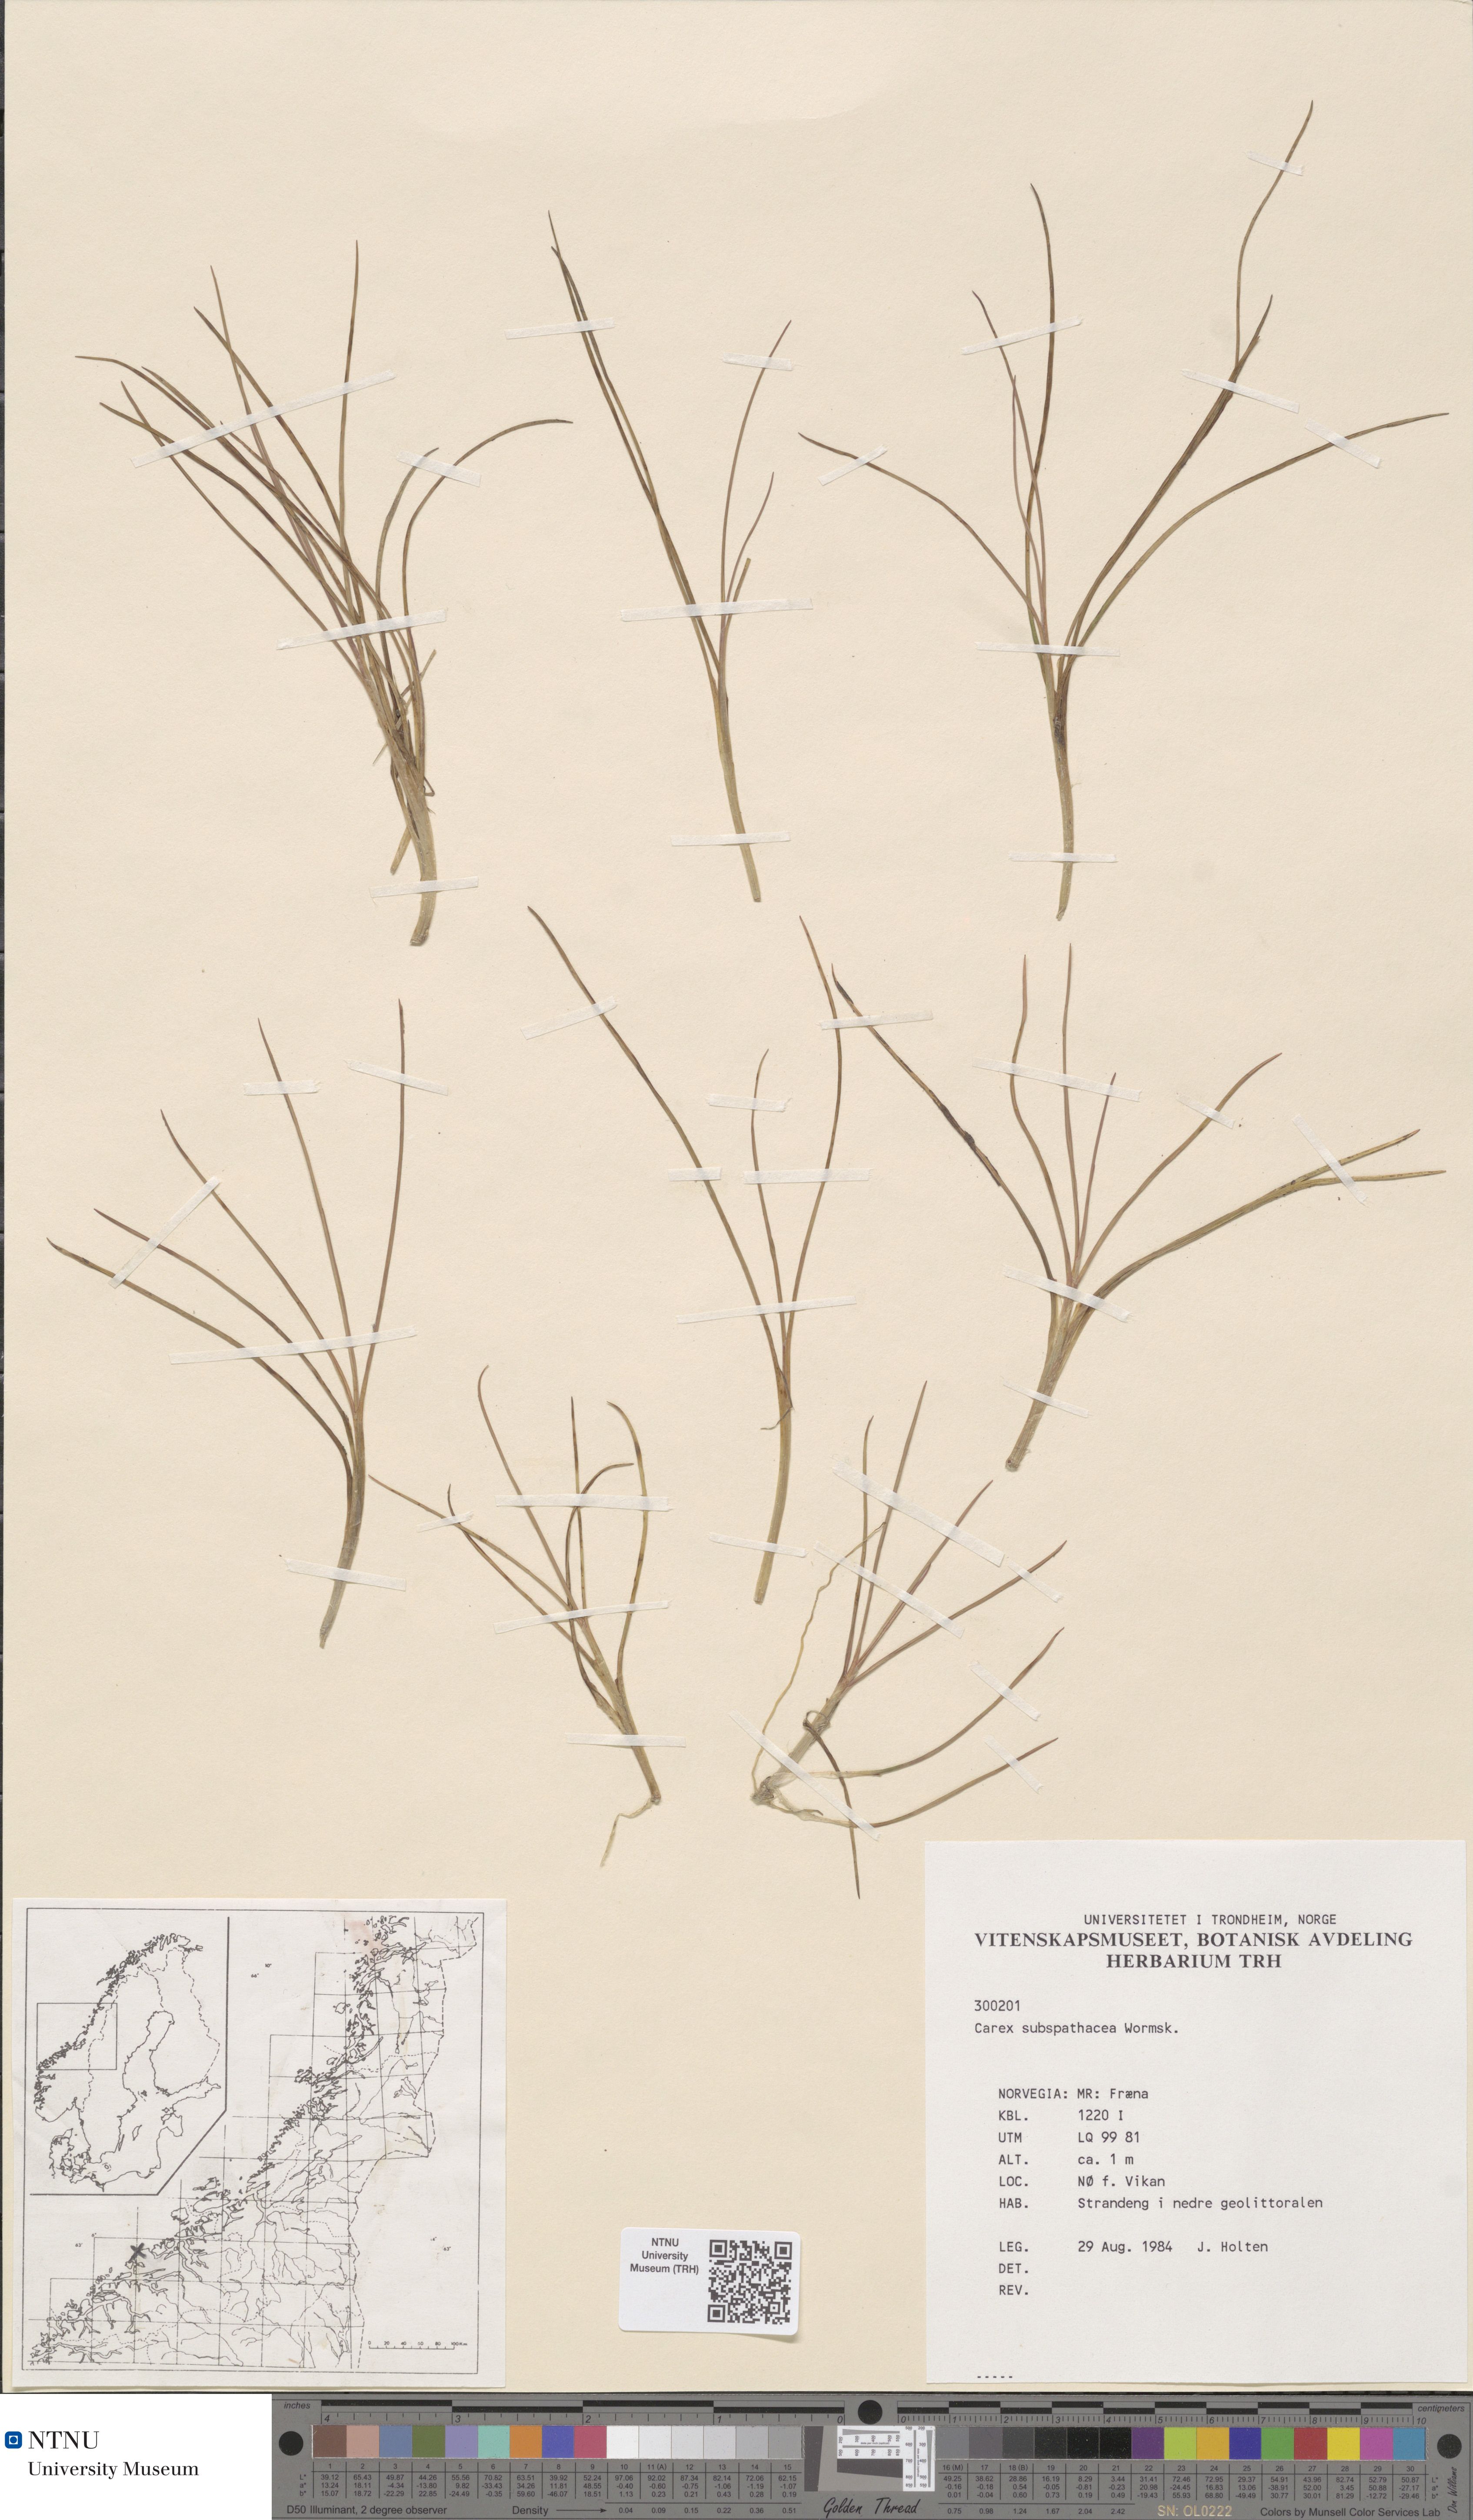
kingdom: Plantae
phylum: Tracheophyta
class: Liliopsida
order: Poales
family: Cyperaceae
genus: Carex
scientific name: Carex subspathacea
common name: Hoppner's sedge
